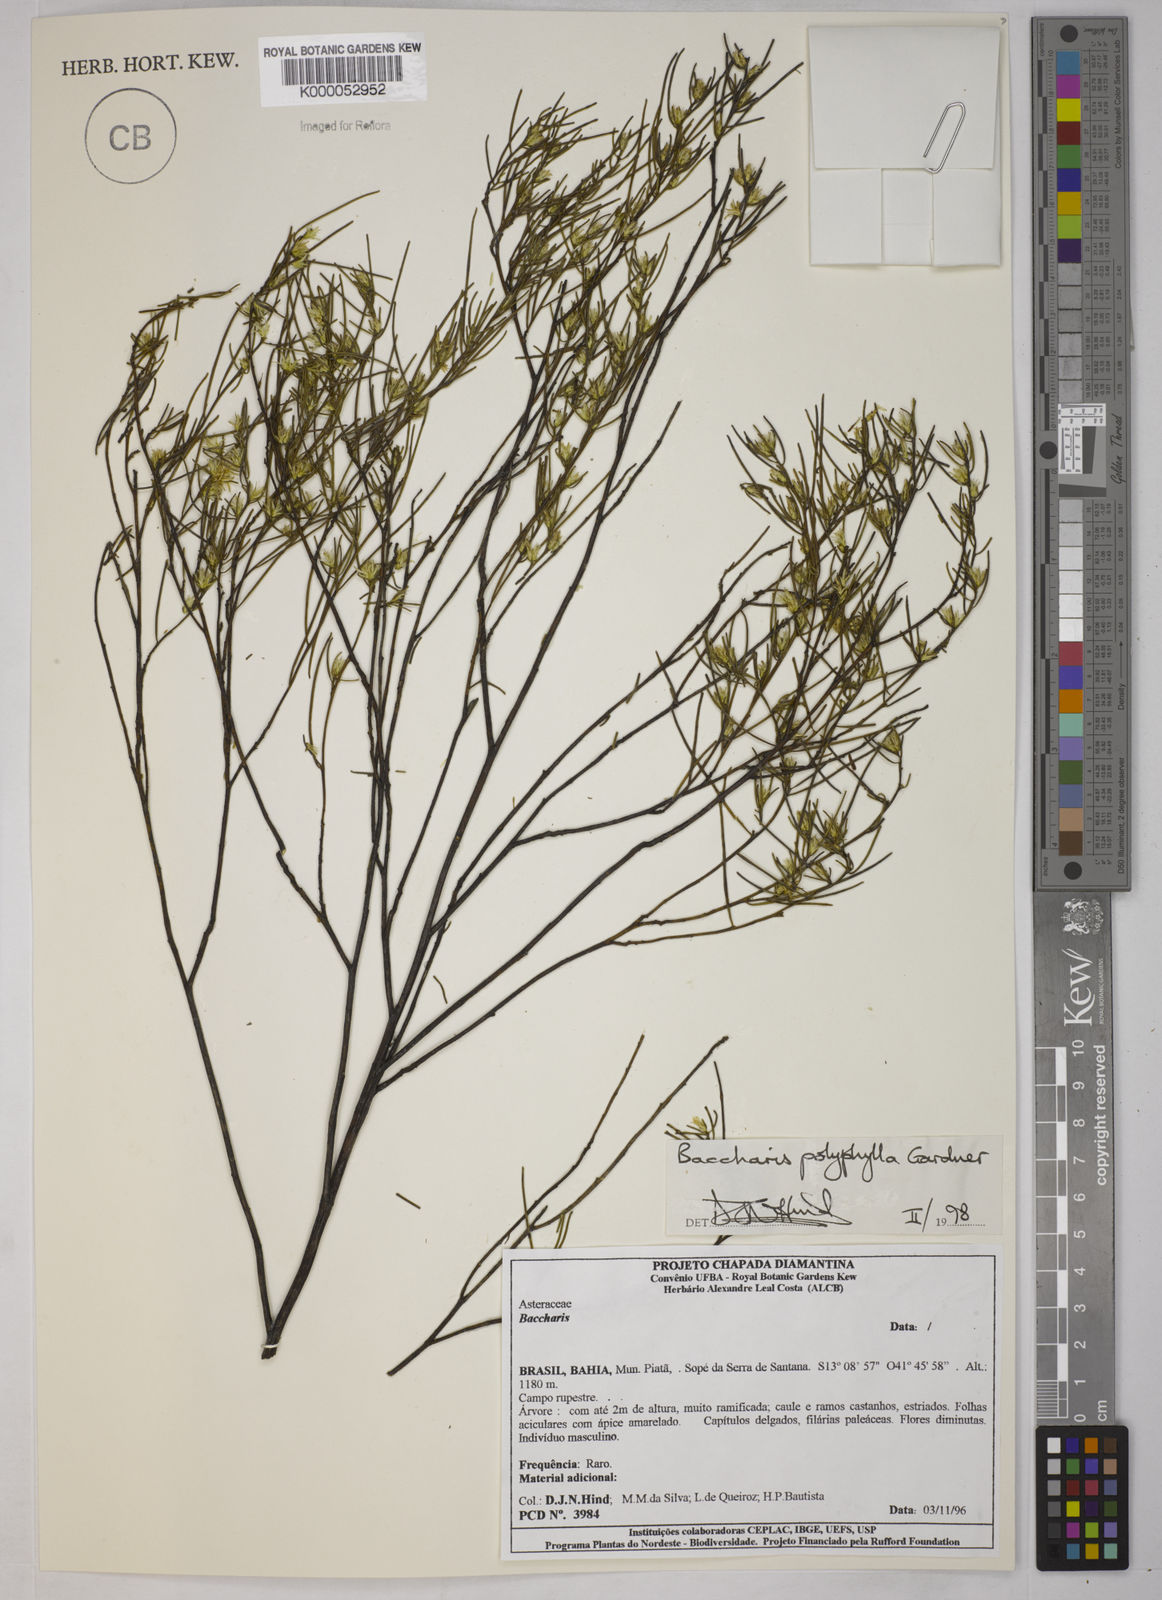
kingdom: Plantae
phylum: Tracheophyta
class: Magnoliopsida
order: Asterales
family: Asteraceae
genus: Baccharis
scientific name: Baccharis polyphylla
